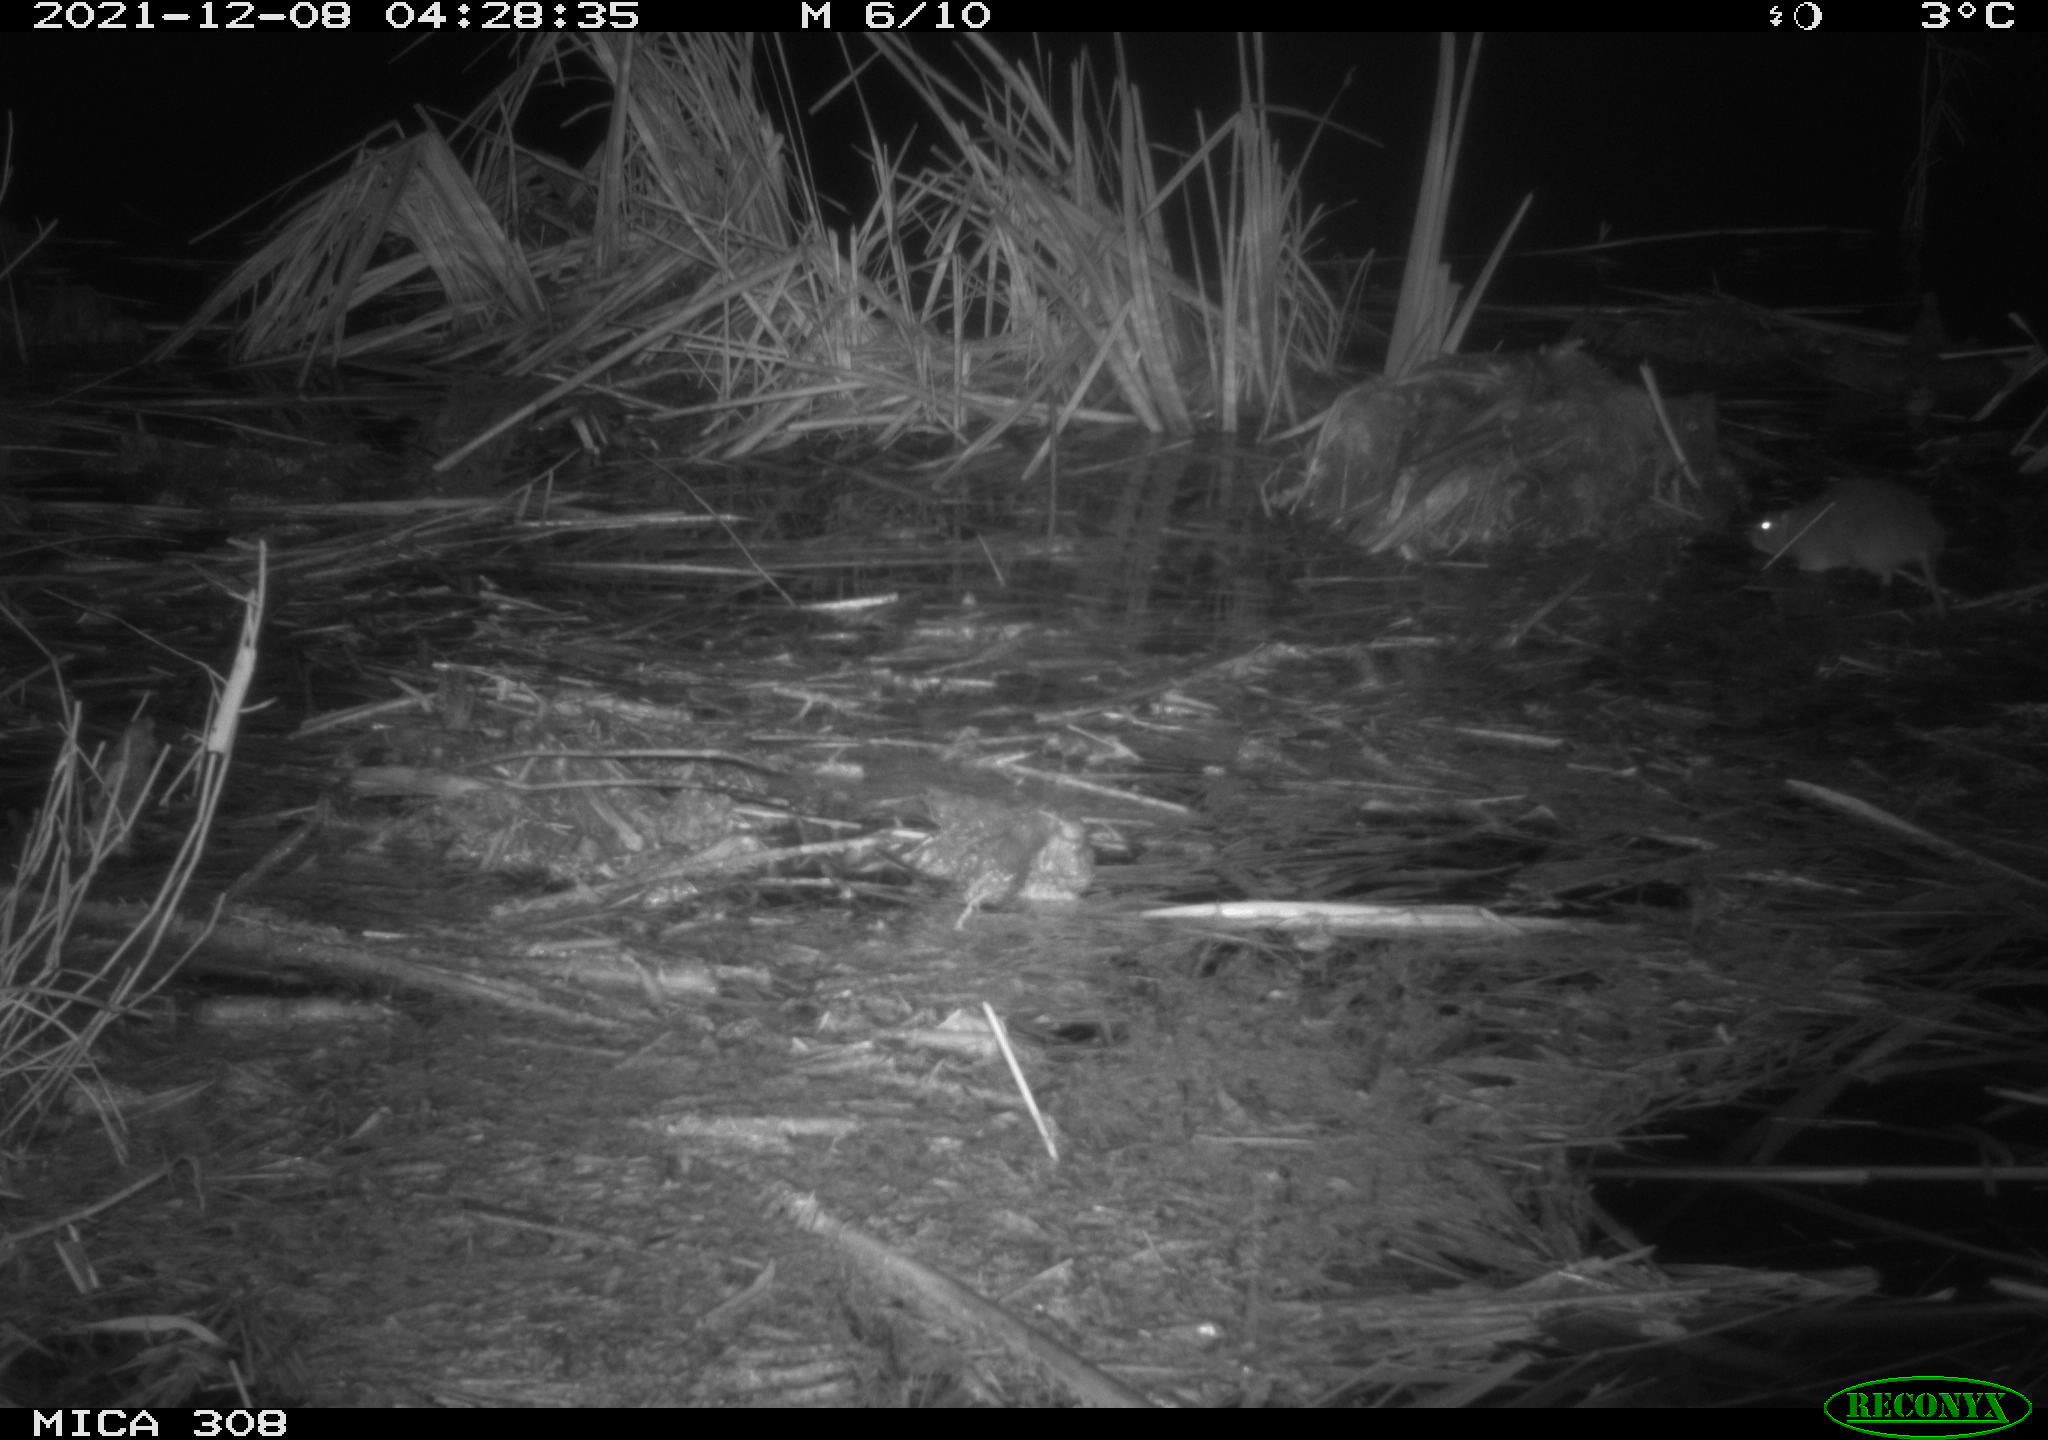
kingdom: Animalia
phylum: Chordata
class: Mammalia
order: Rodentia
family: Muridae
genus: Rattus
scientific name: Rattus norvegicus
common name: Brown rat
